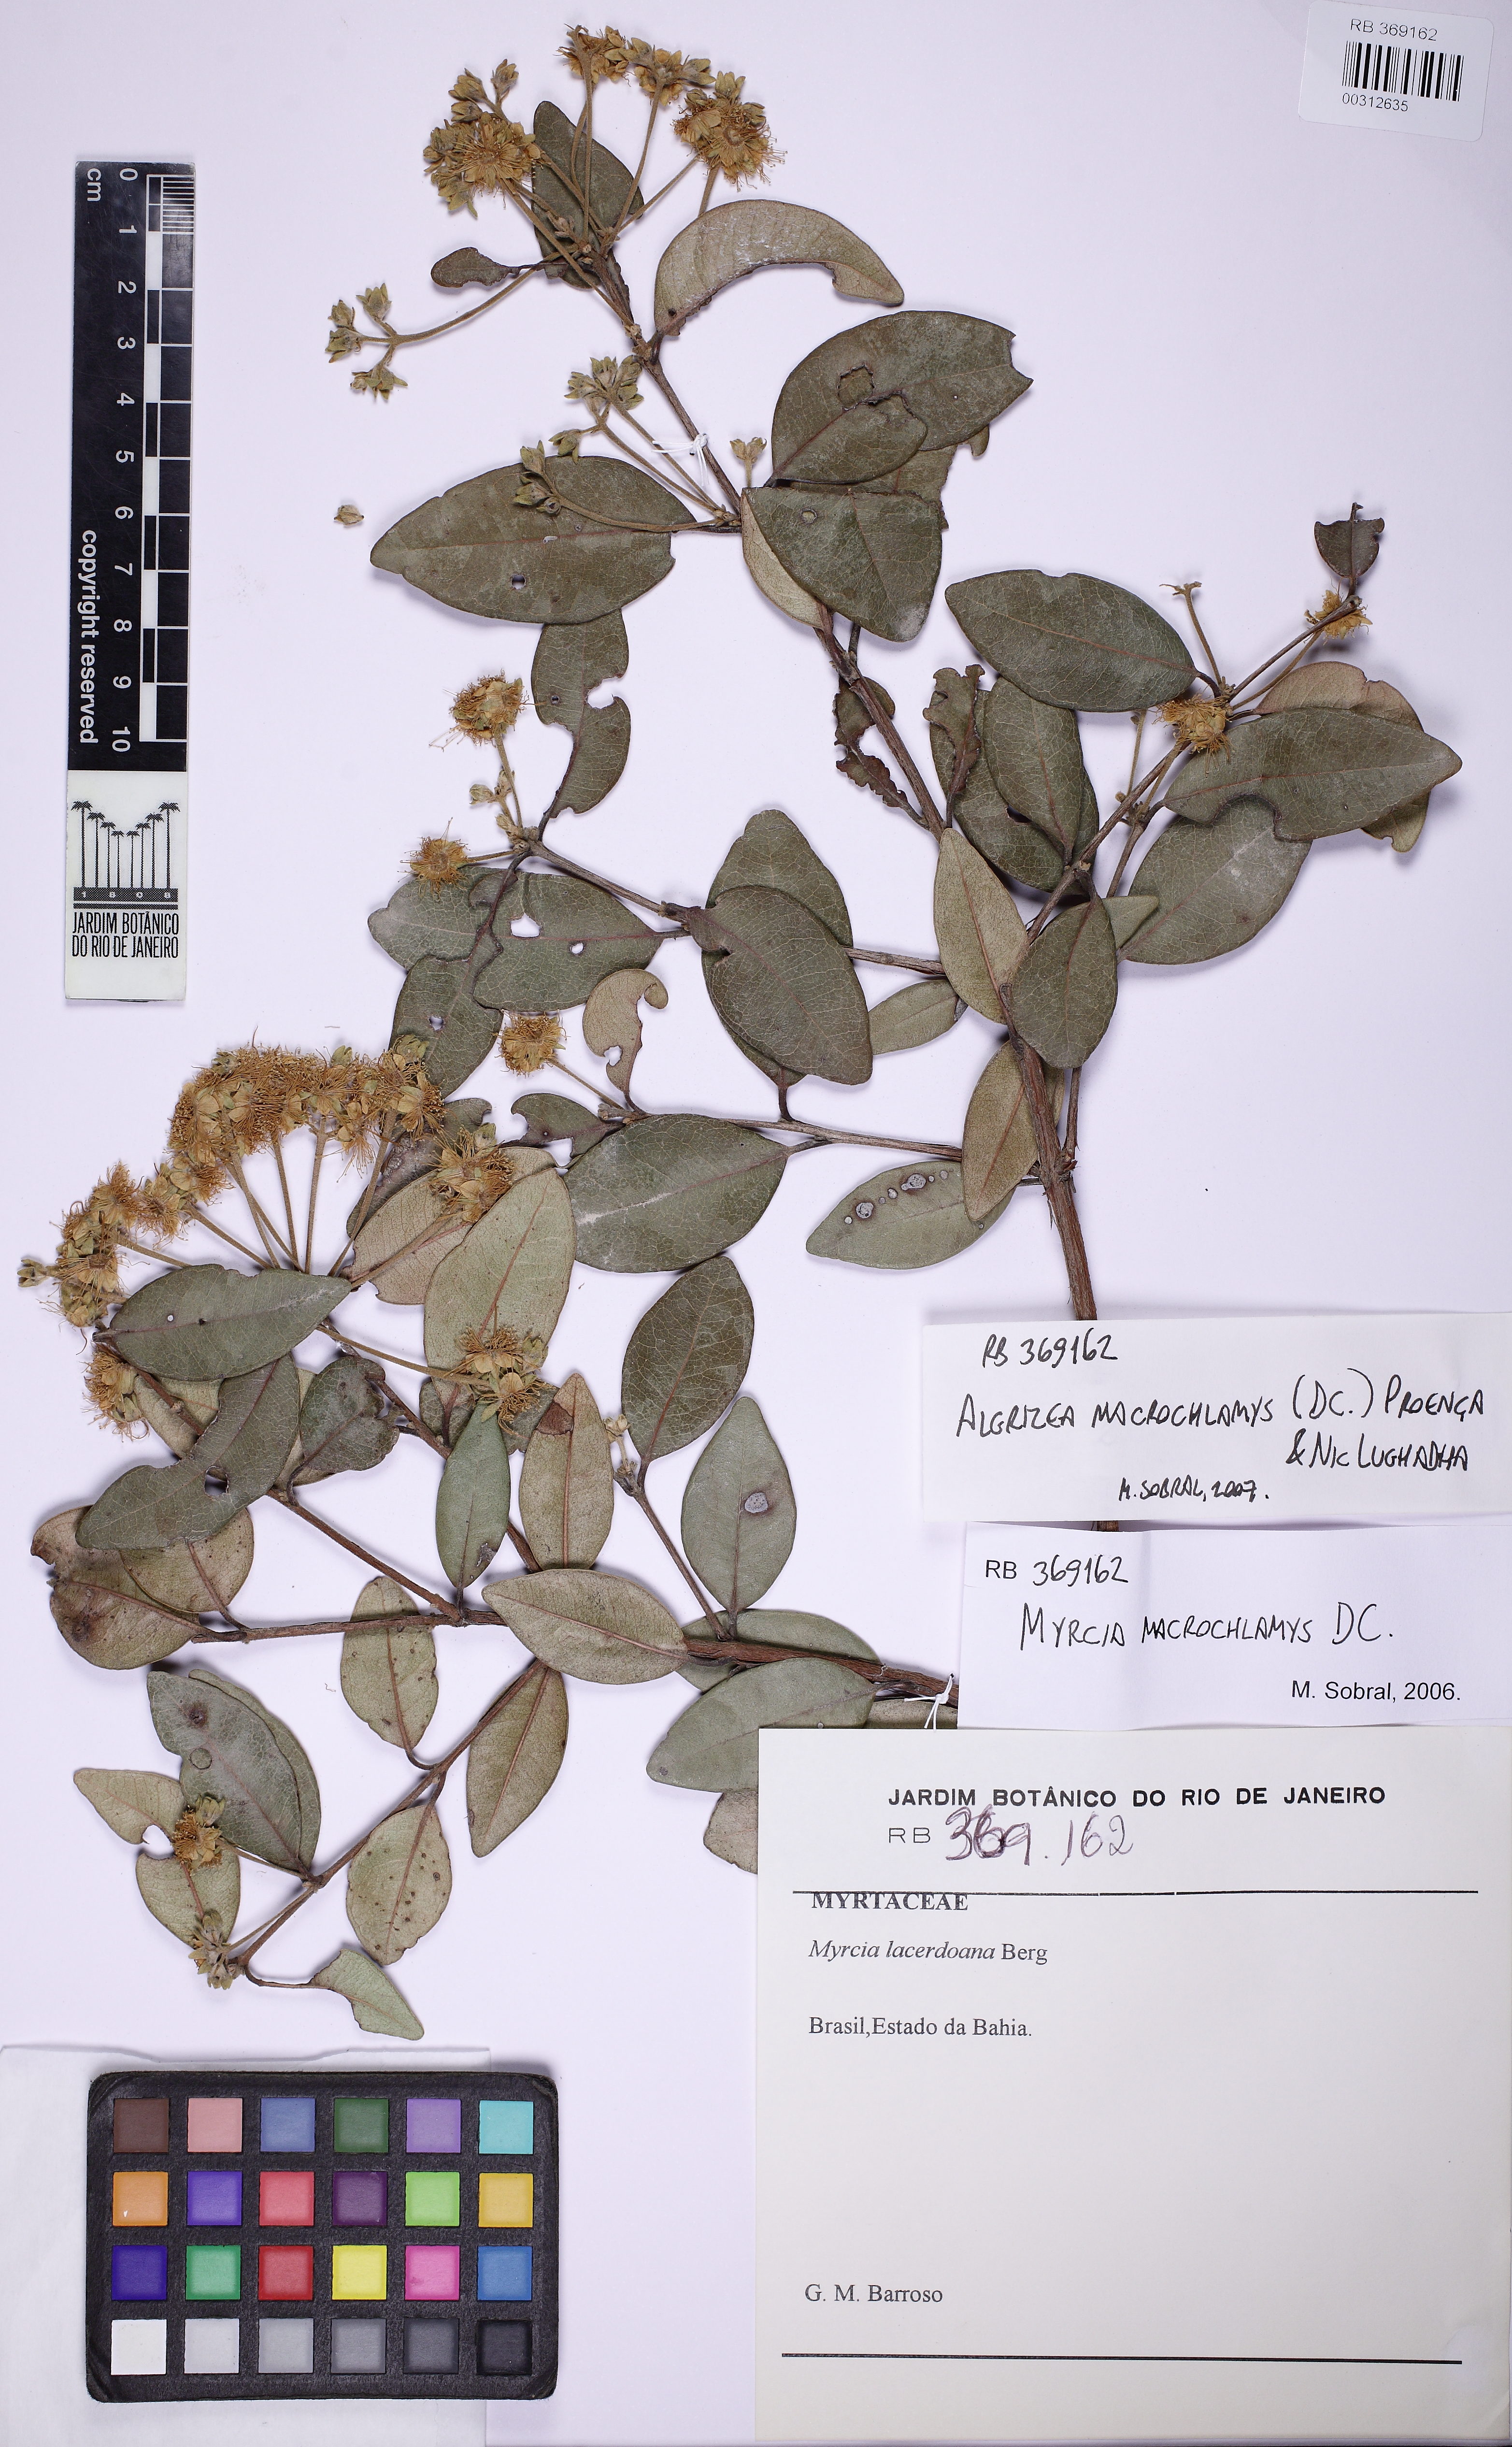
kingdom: Plantae
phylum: Tracheophyta
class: Magnoliopsida
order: Myrtales
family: Myrtaceae
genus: Algrizea
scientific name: Algrizea macrochlamys
